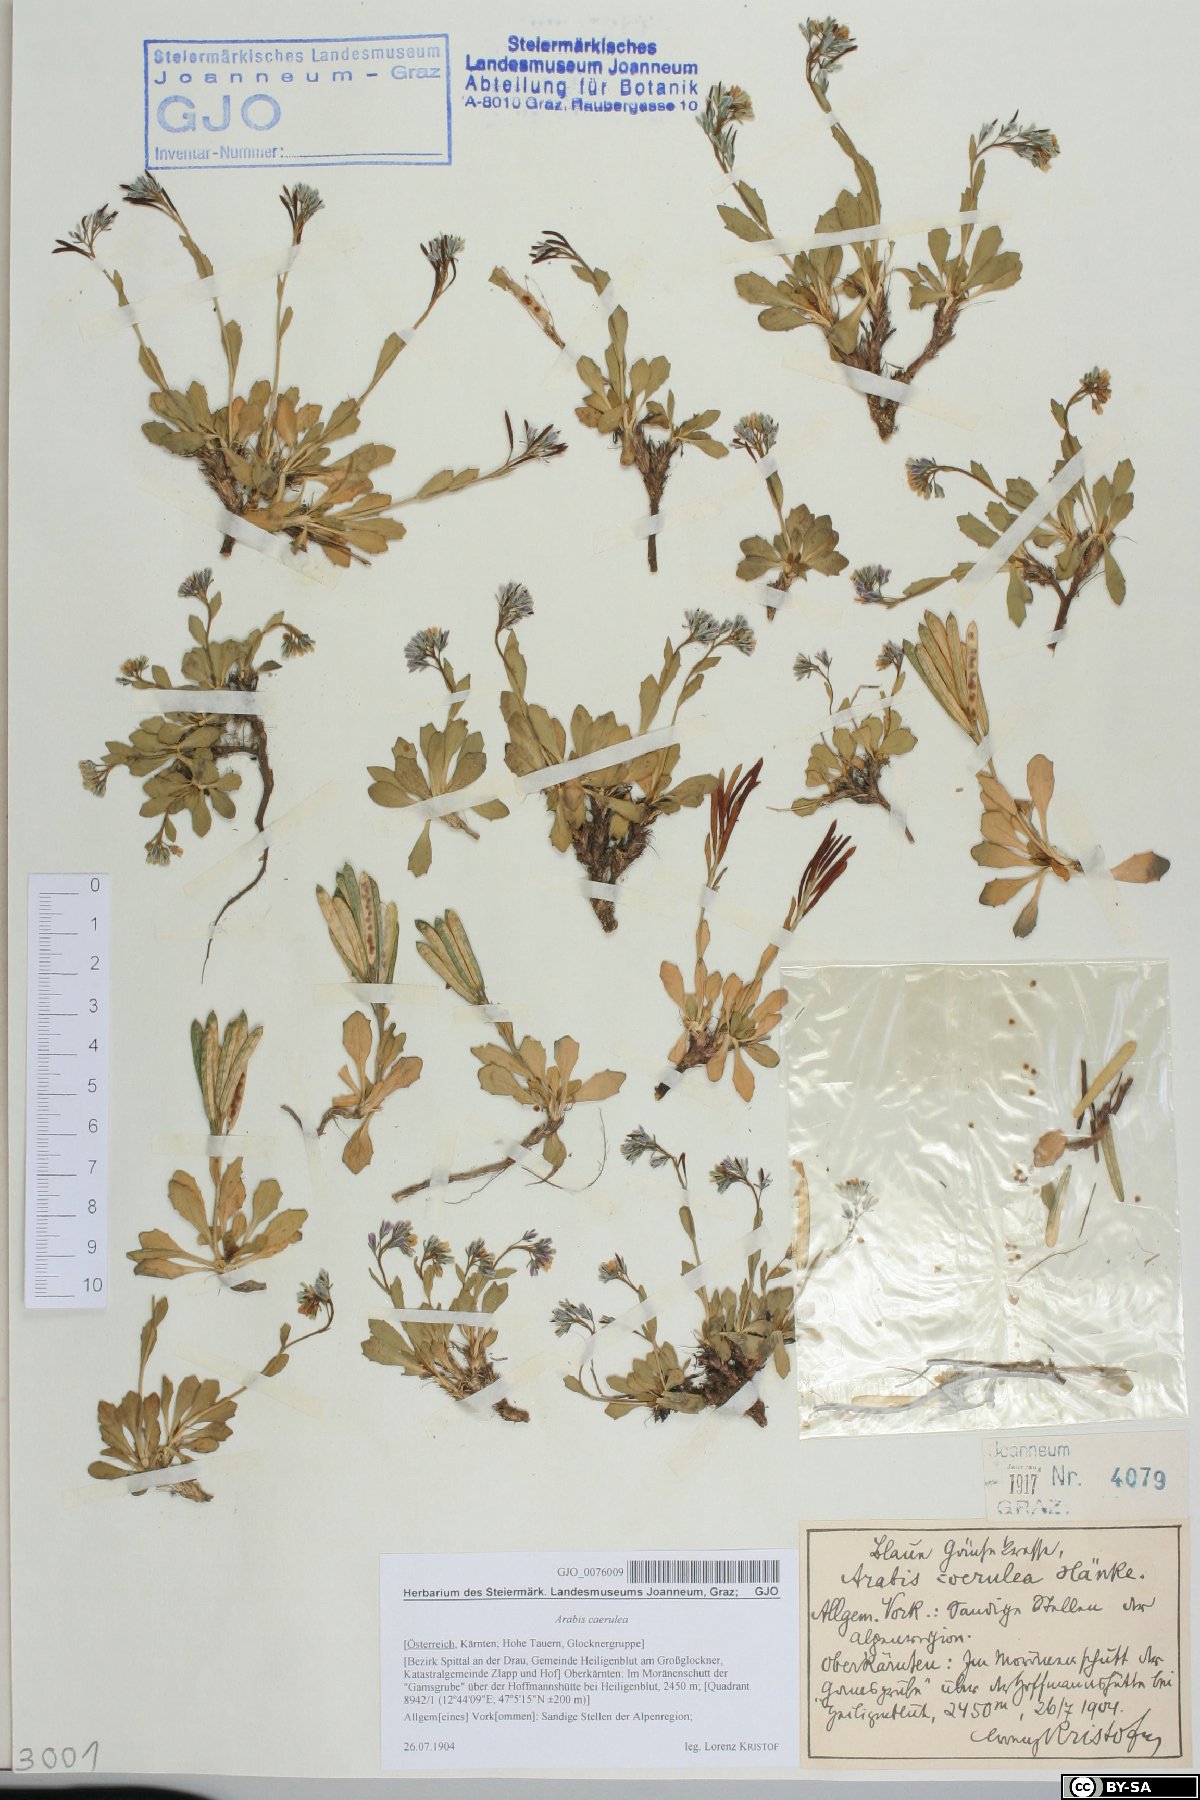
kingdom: Plantae
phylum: Tracheophyta
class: Magnoliopsida
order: Brassicales
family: Brassicaceae
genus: Arabis
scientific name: Arabis caerulea
